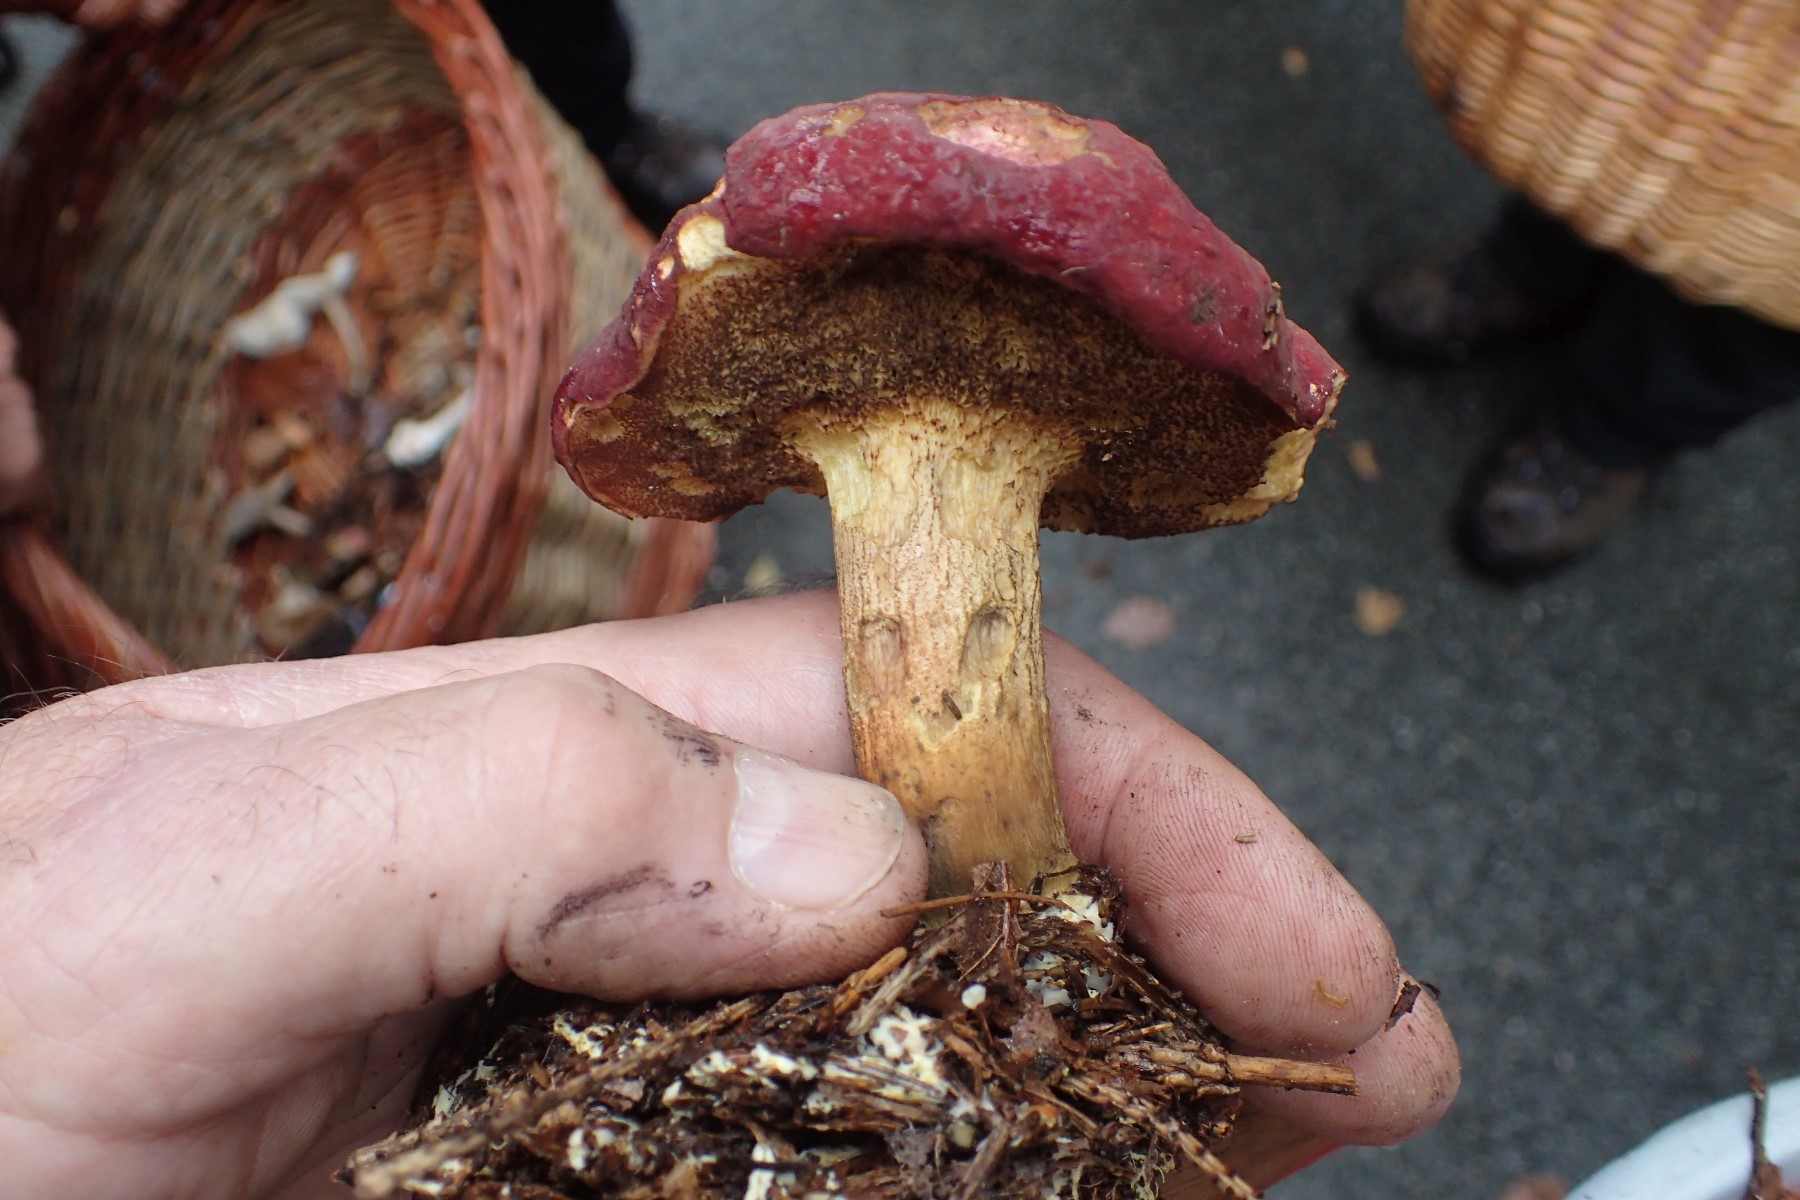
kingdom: Fungi
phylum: Basidiomycota
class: Agaricomycetes
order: Boletales
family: Boletaceae
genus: Xerocomellus
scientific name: Xerocomellus pruinatus
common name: dugget rørhat
